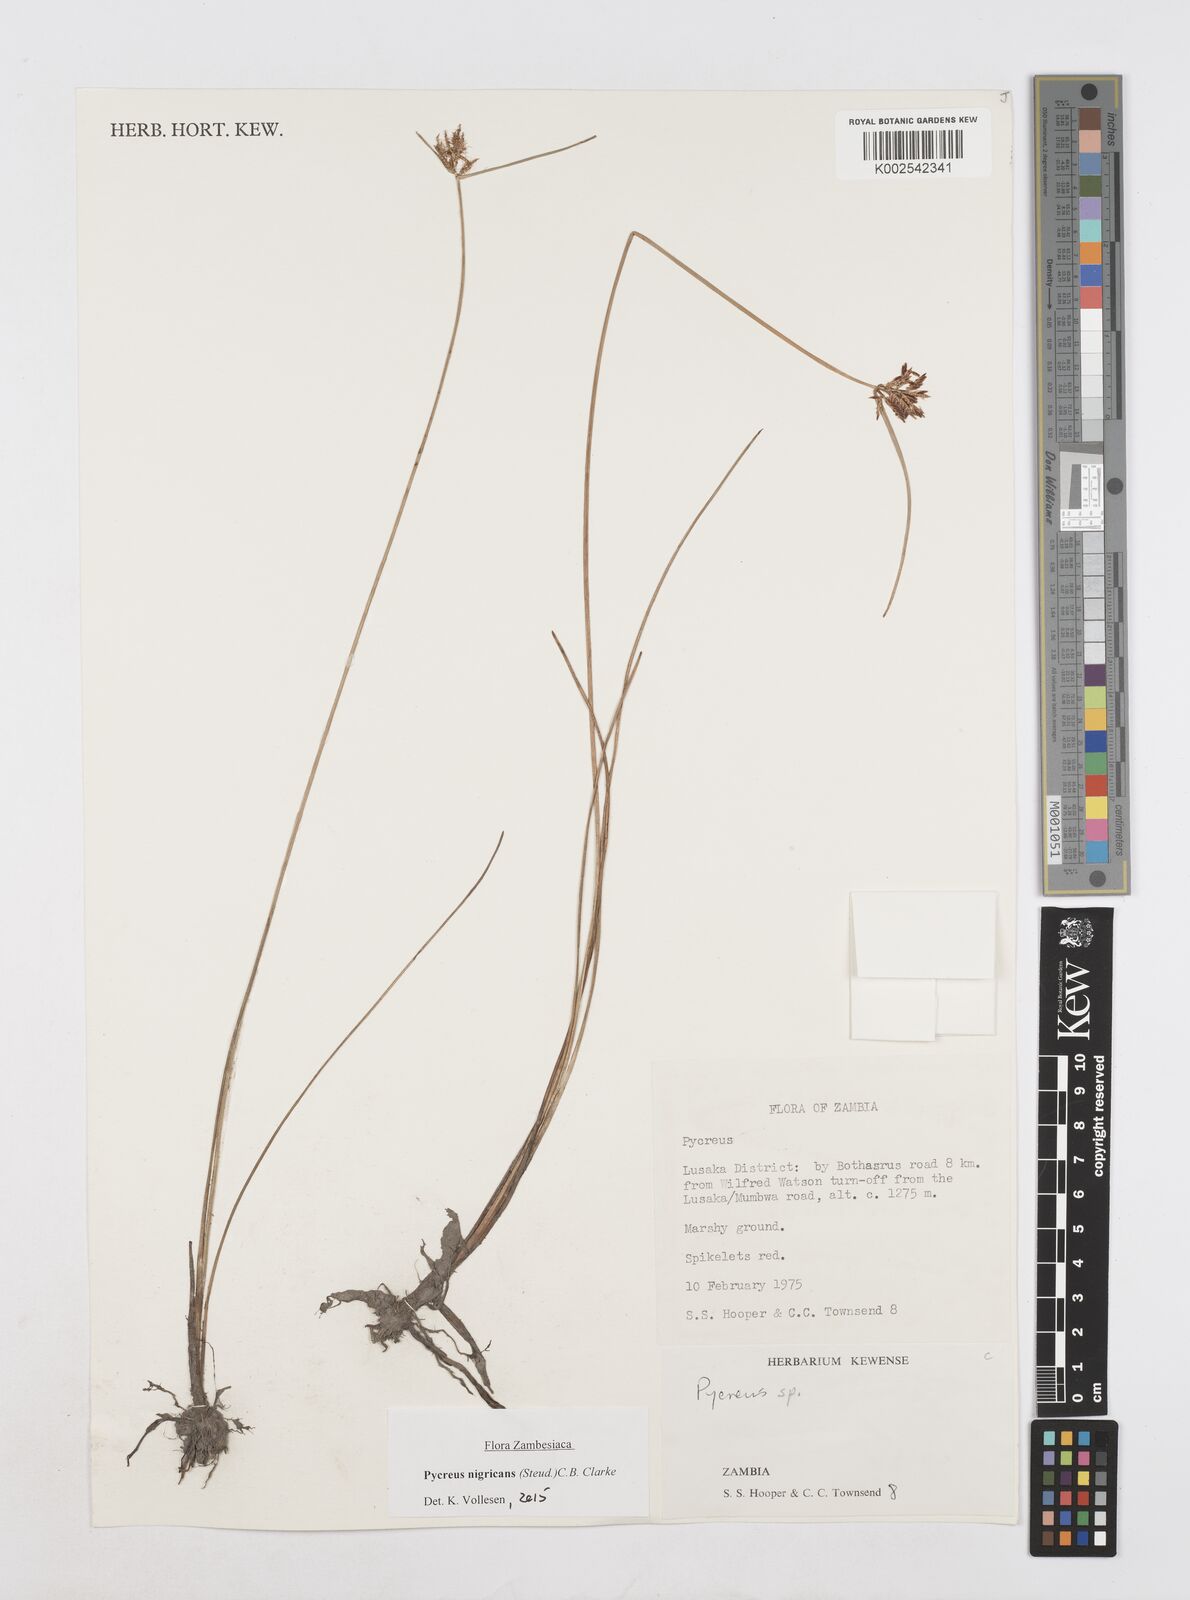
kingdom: Plantae
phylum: Tracheophyta
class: Liliopsida
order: Poales
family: Cyperaceae
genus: Cyperus
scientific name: Cyperus nigricans
